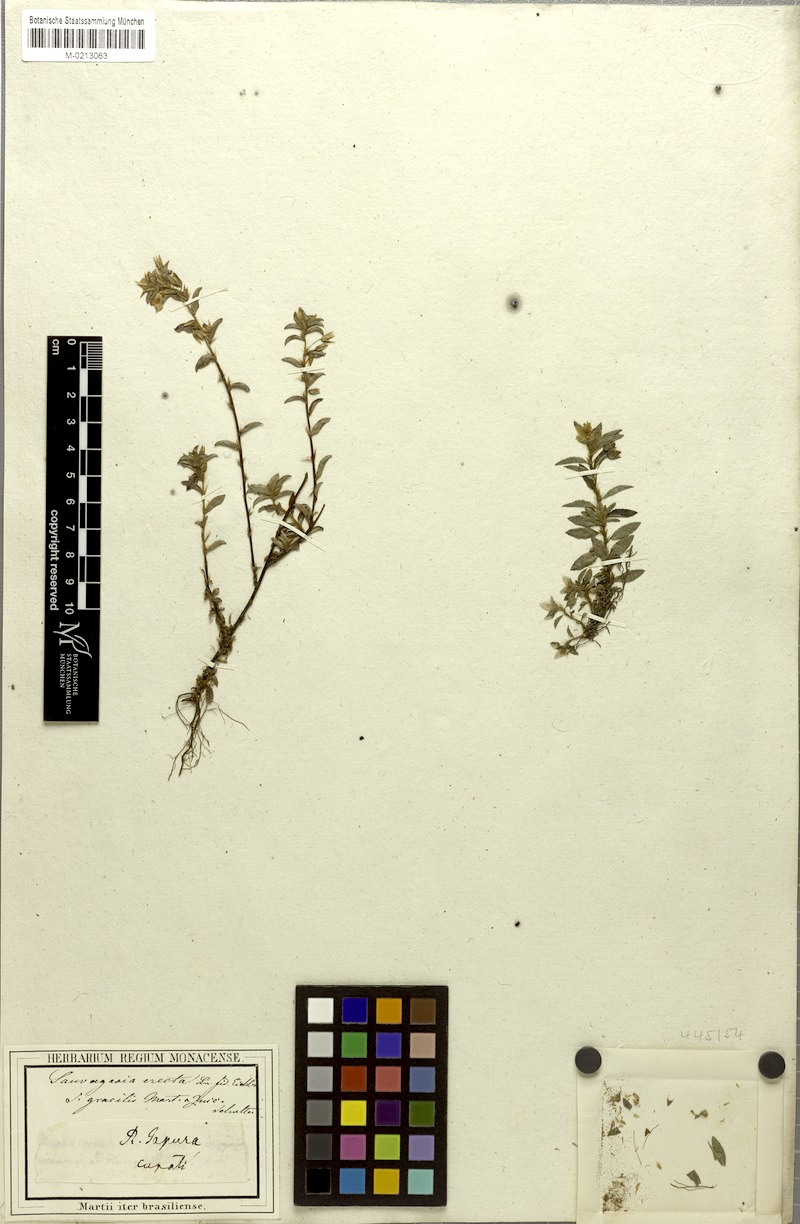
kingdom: Plantae
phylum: Tracheophyta
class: Magnoliopsida
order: Malpighiales
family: Ochnaceae
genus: Sauvagesia
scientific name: Sauvagesia erecta
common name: Creole tea
